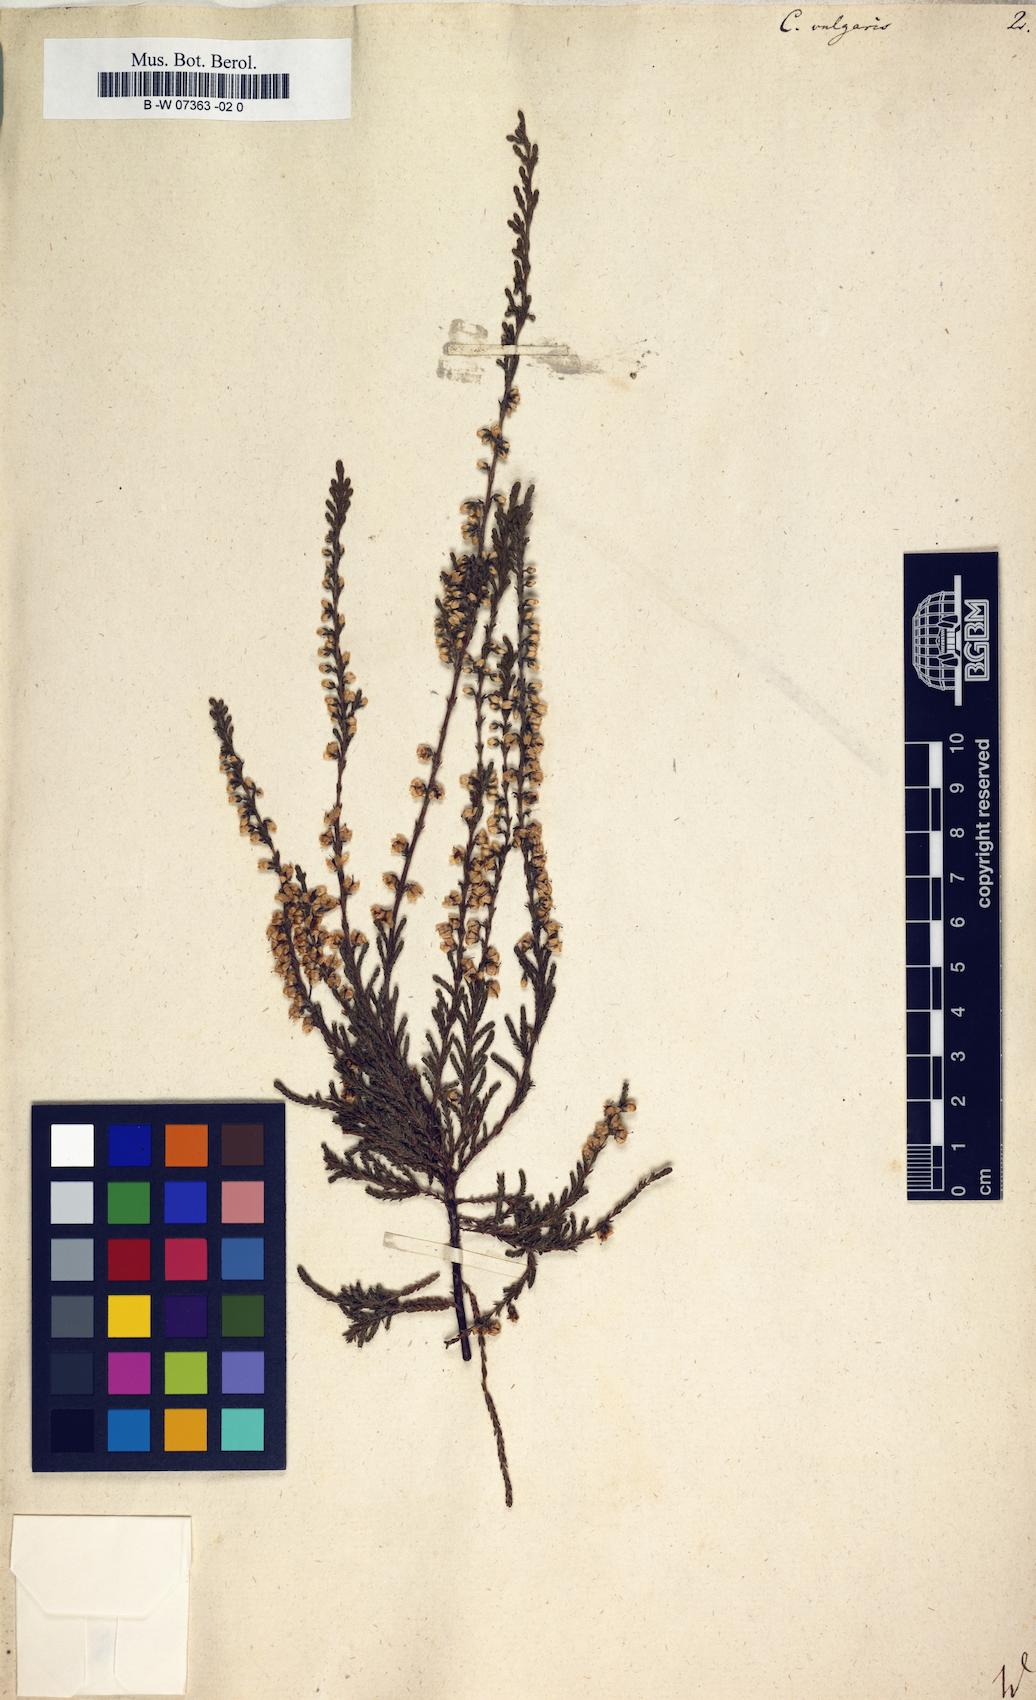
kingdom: Plantae
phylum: Tracheophyta
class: Magnoliopsida
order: Ericales
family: Ericaceae
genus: Calluna
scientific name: Calluna vulgaris
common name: Heather
